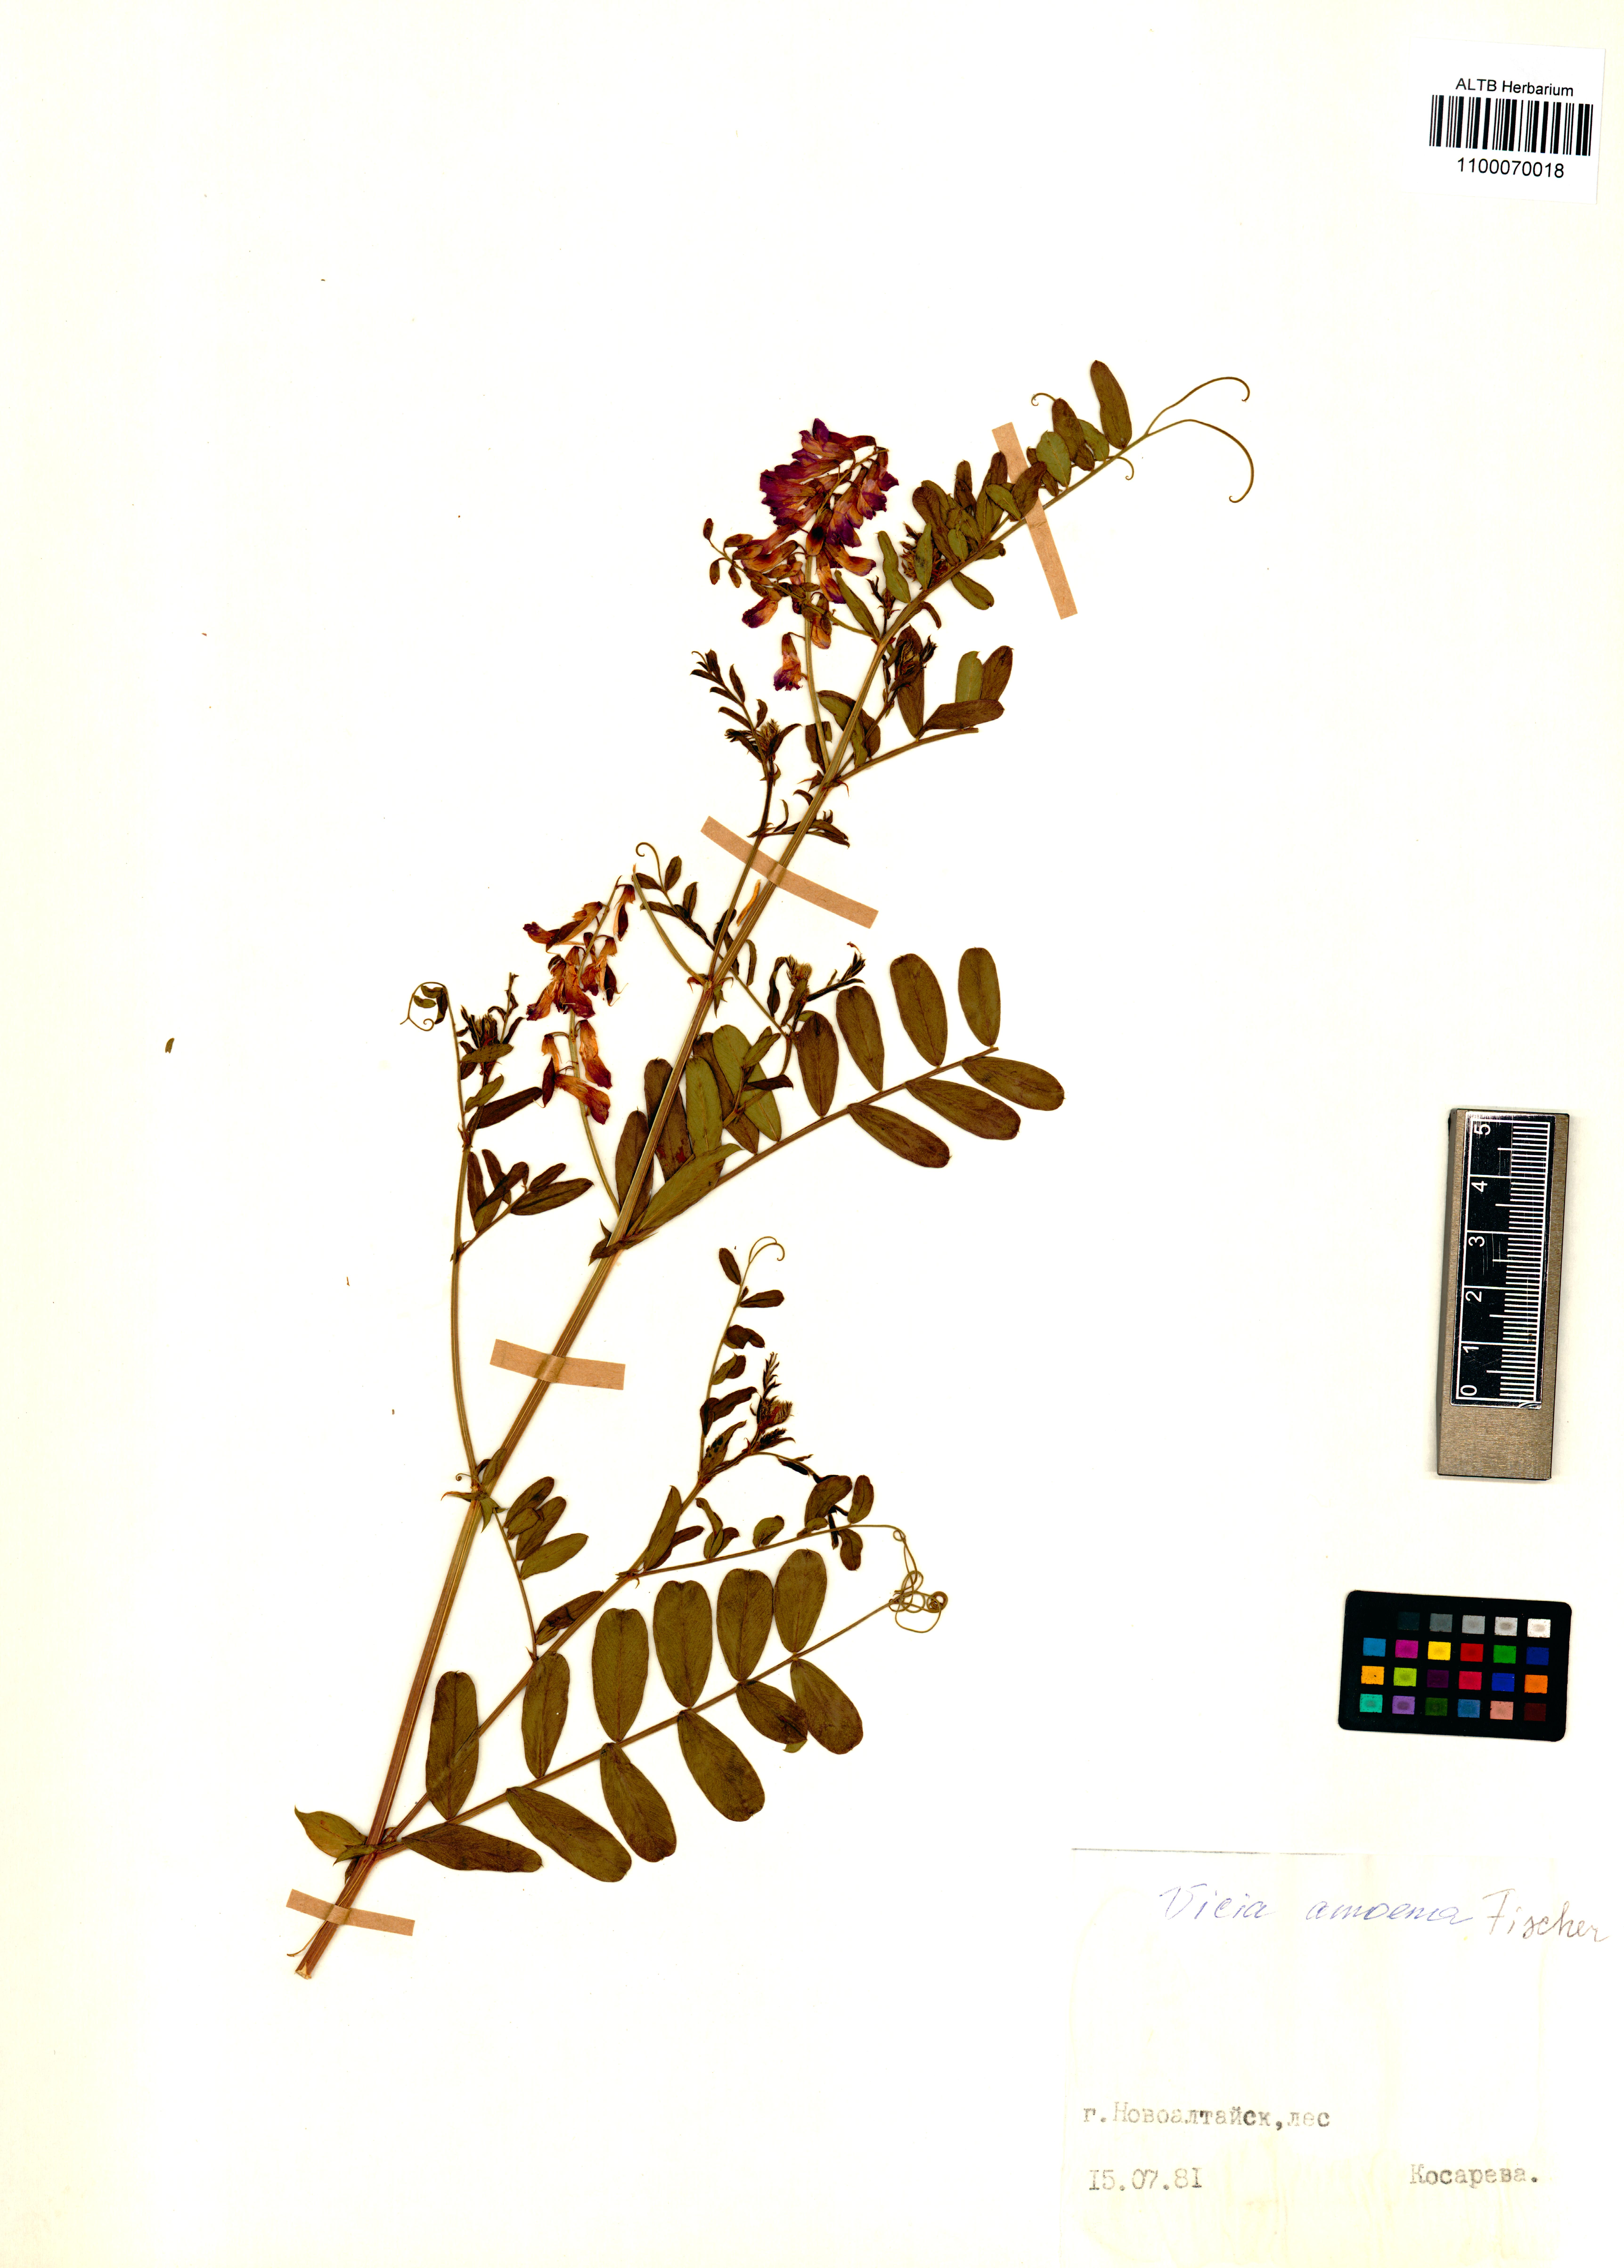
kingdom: Plantae
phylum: Tracheophyta
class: Magnoliopsida
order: Fabales
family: Fabaceae
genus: Vicia
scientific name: Vicia amoena
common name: Cheder ebs
